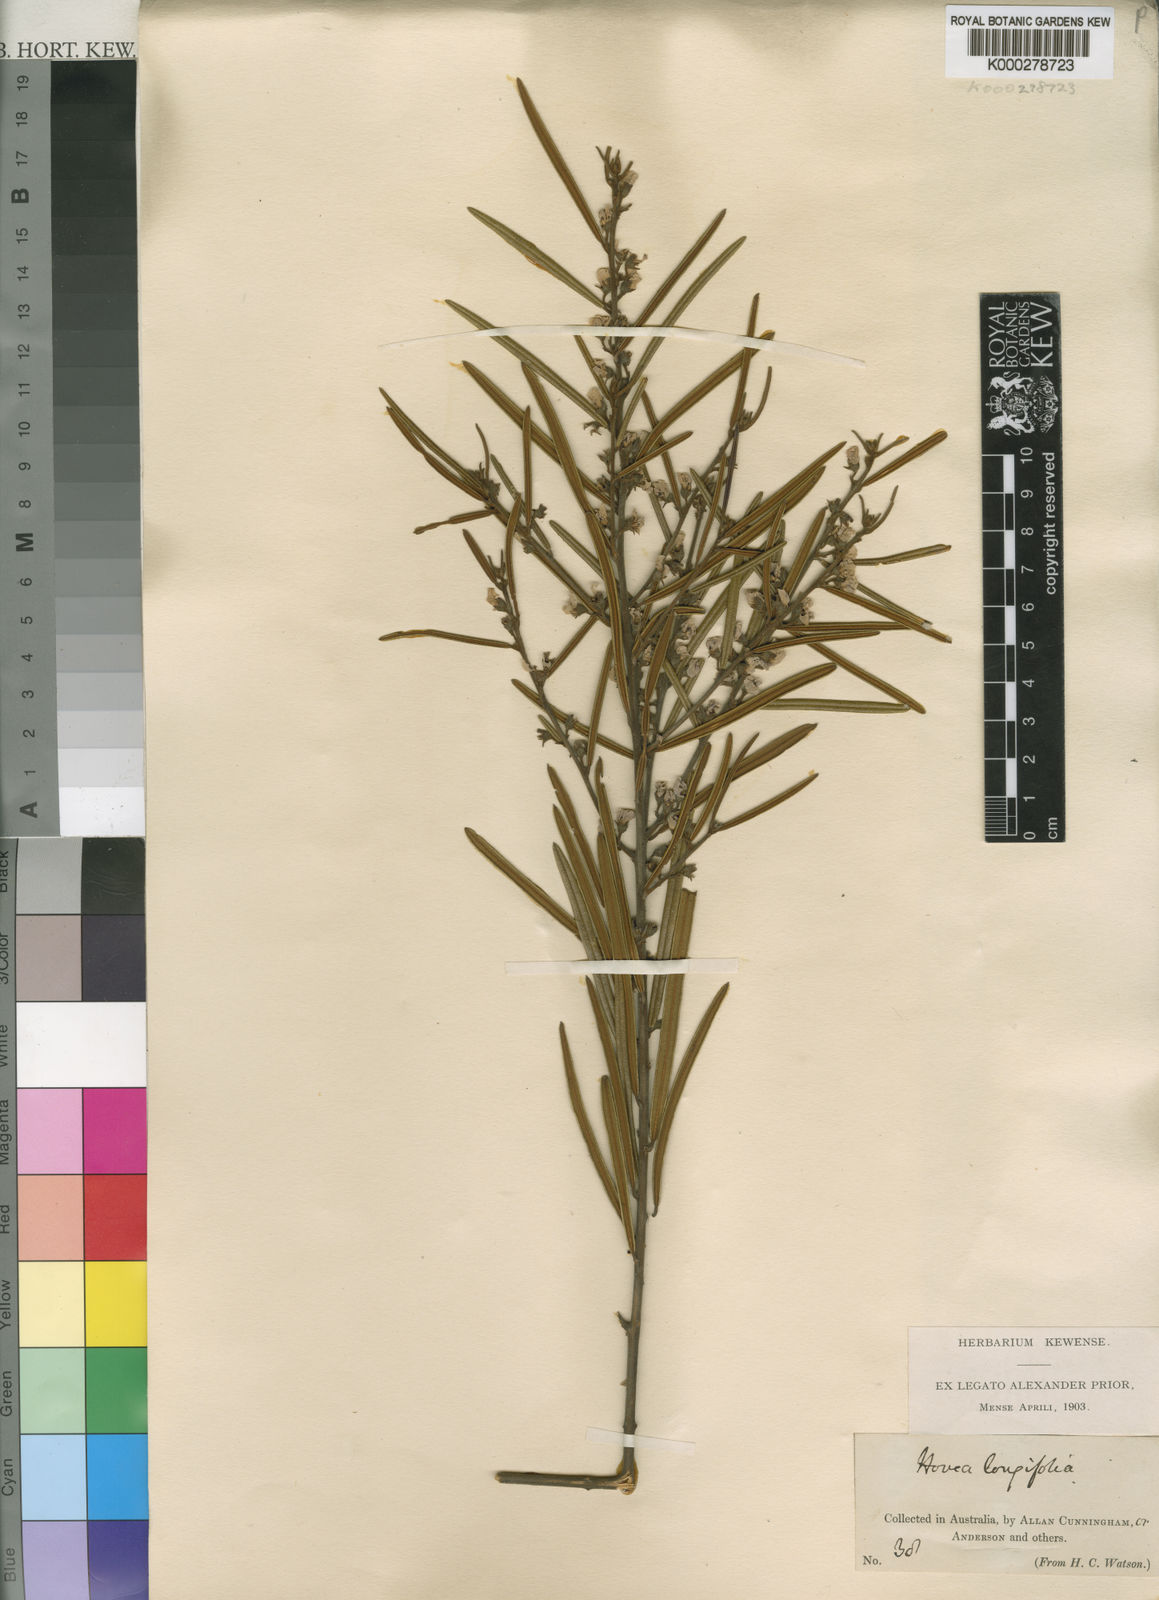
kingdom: Plantae
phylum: Tracheophyta
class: Magnoliopsida
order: Fabales
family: Fabaceae
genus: Hovea
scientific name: Hovea longifolia
